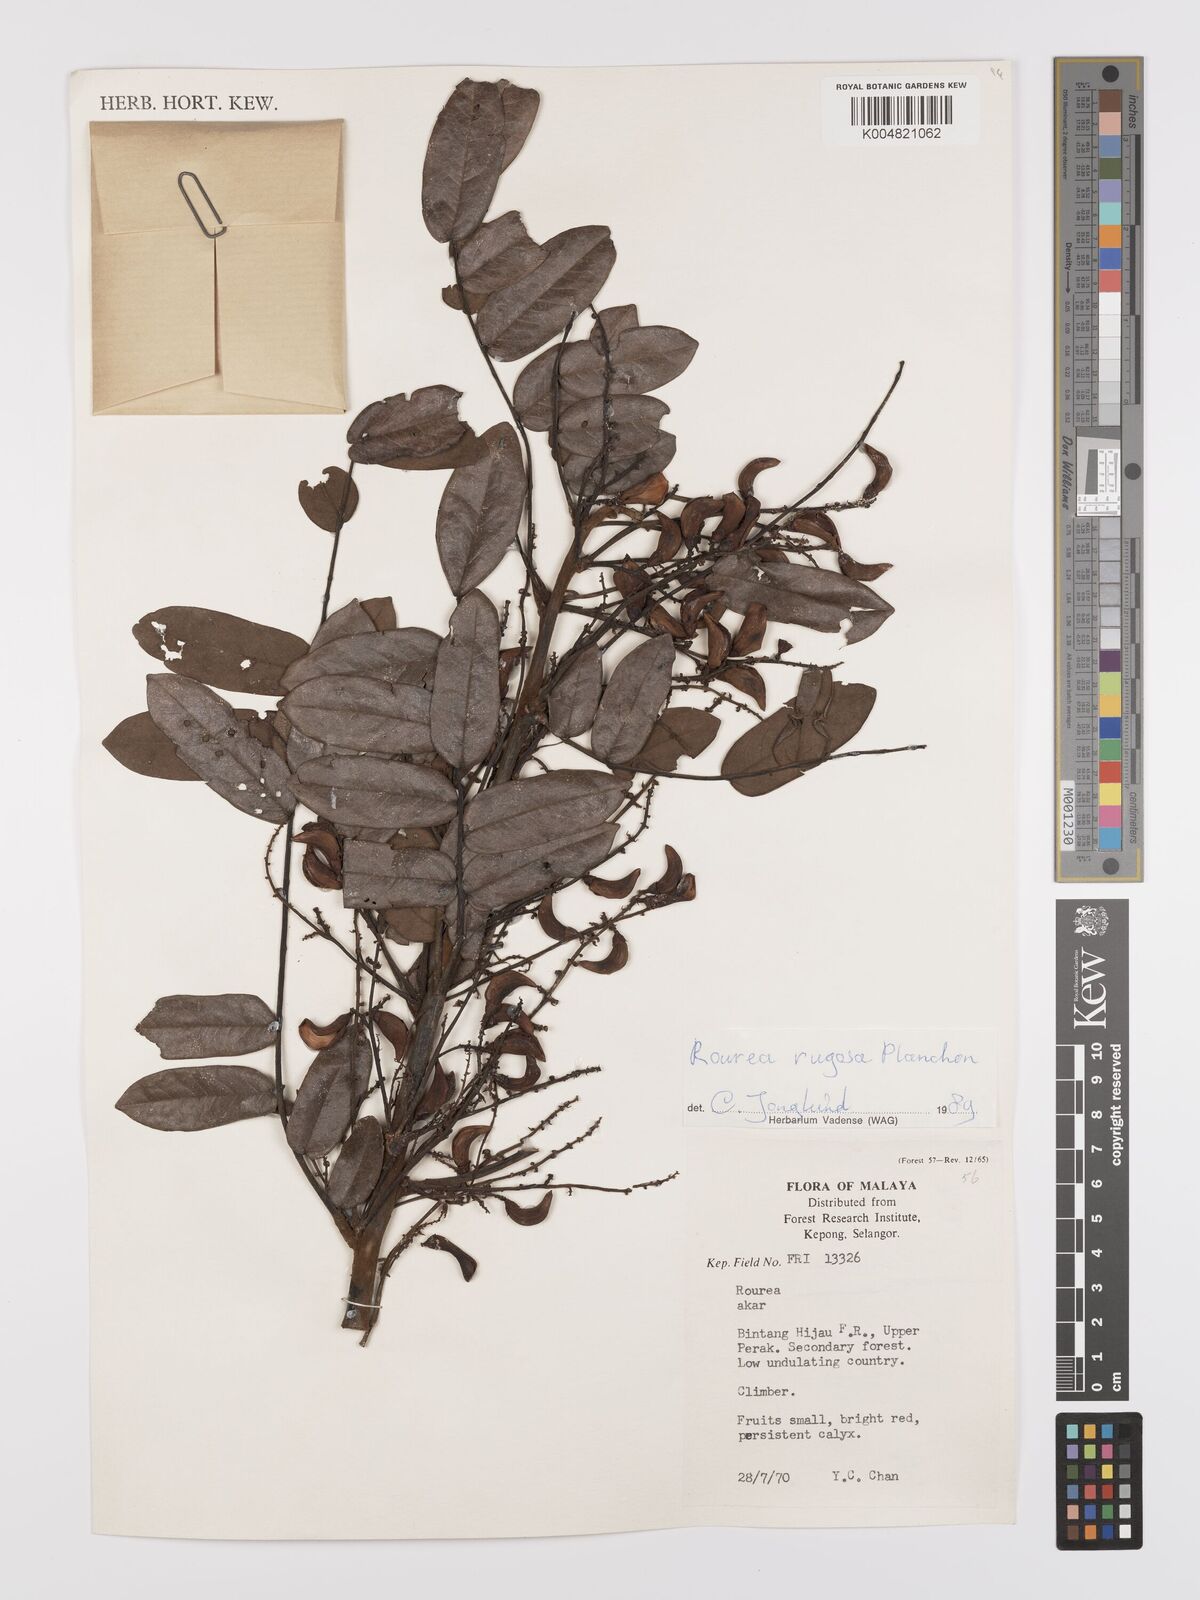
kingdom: Plantae
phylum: Tracheophyta
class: Magnoliopsida
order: Oxalidales
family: Connaraceae
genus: Rourea
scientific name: Rourea rugosa
